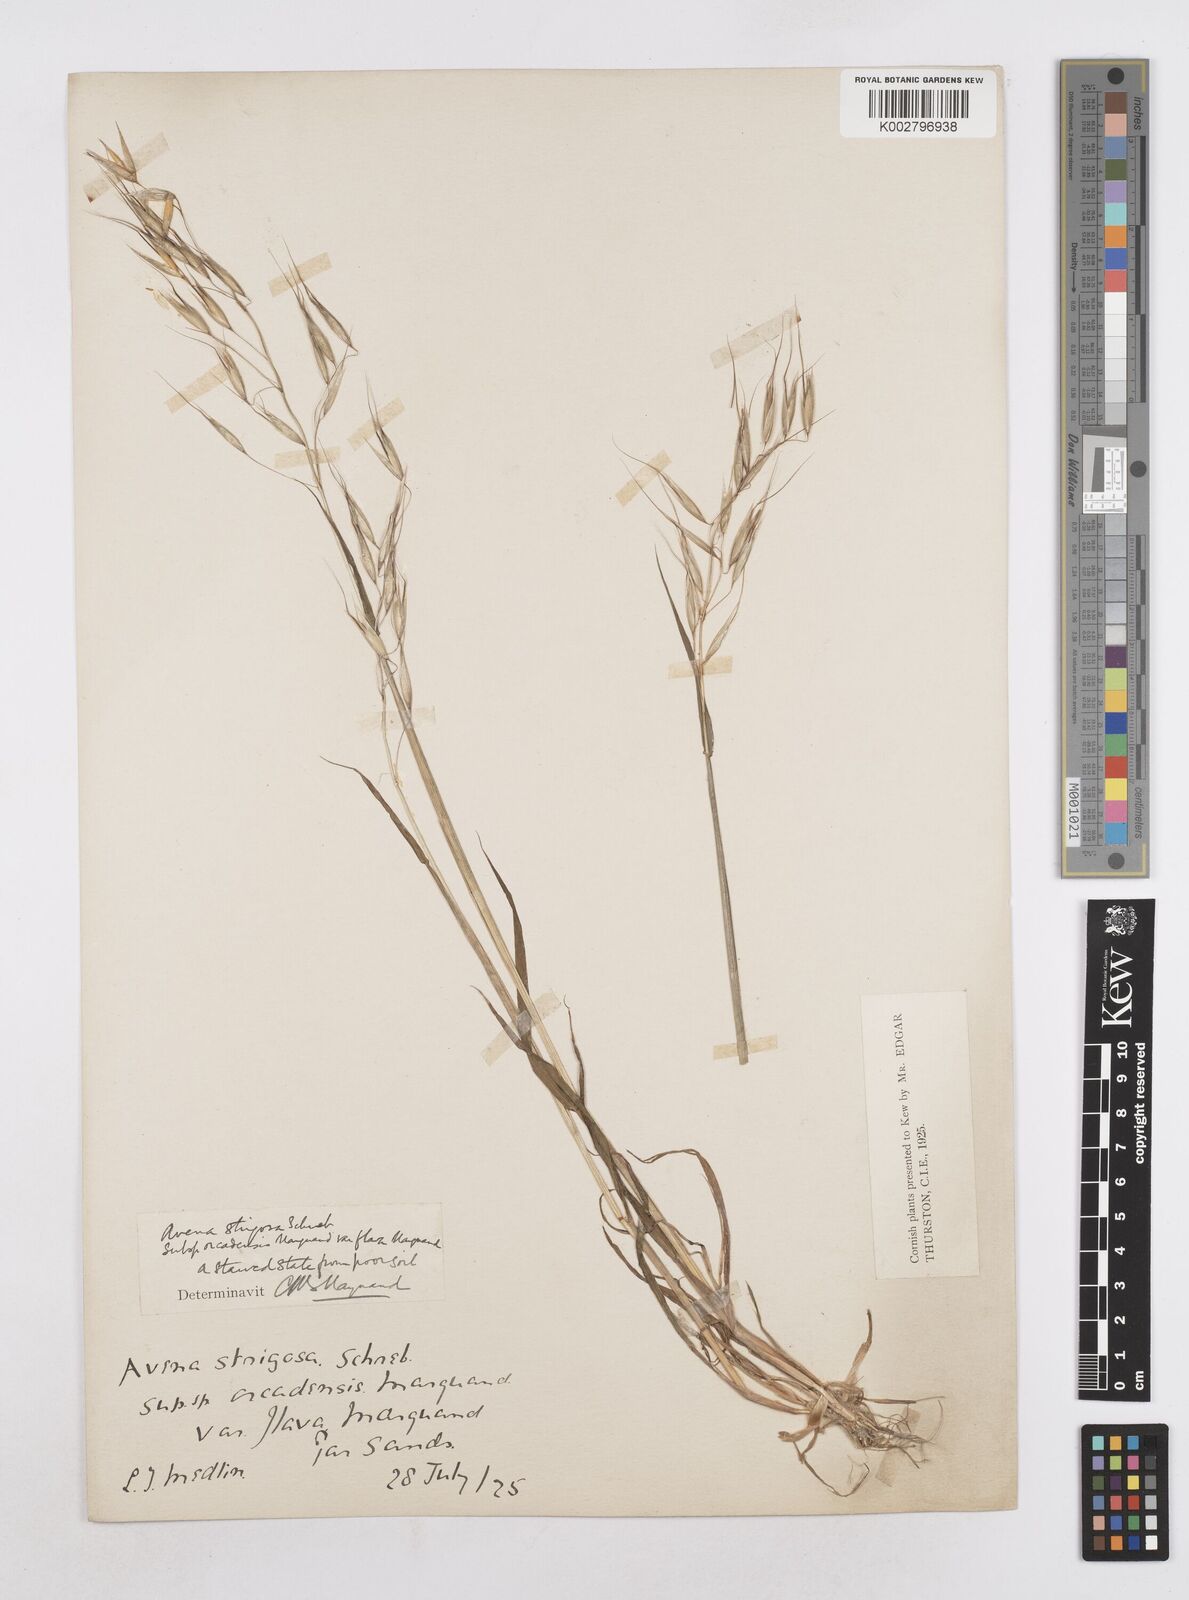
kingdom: Plantae
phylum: Tracheophyta
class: Liliopsida
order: Poales
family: Poaceae
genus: Avena
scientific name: Avena strigosa
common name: Bristle oat
